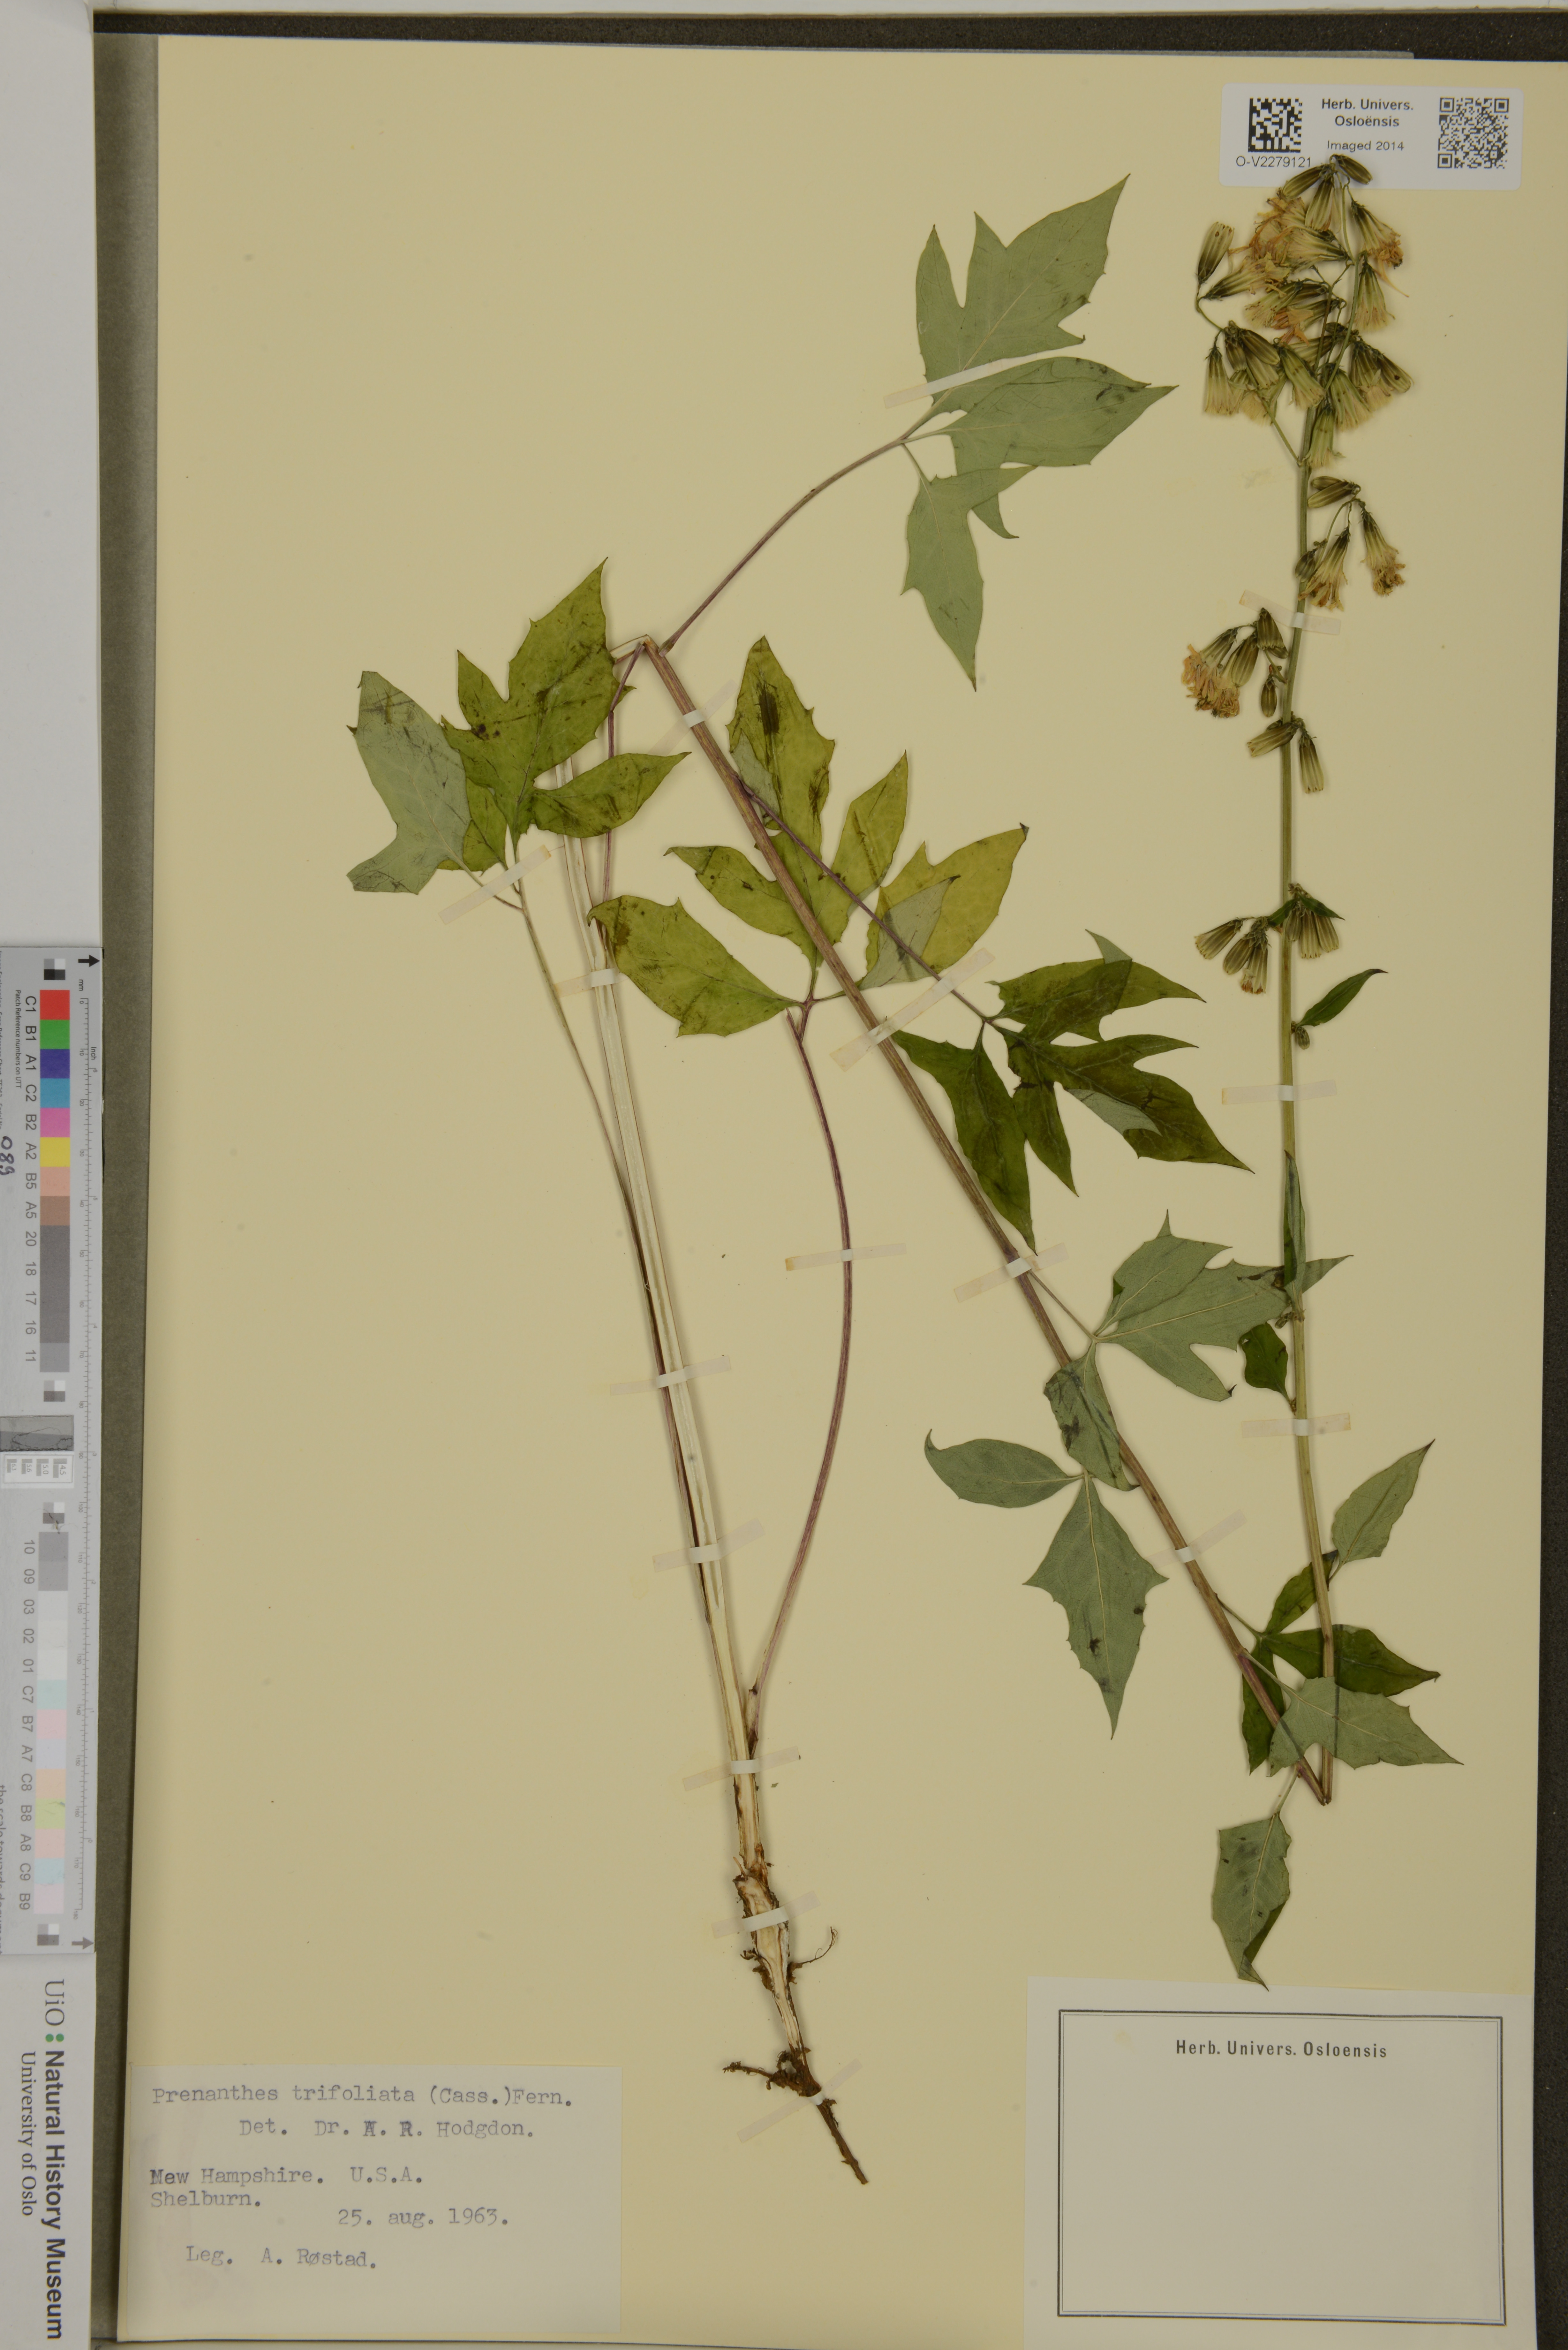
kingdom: Plantae
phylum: Tracheophyta
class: Magnoliopsida
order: Asterales
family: Asteraceae
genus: Nabalus
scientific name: Nabalus trifoliolatus
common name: Gall-of-the-earth
